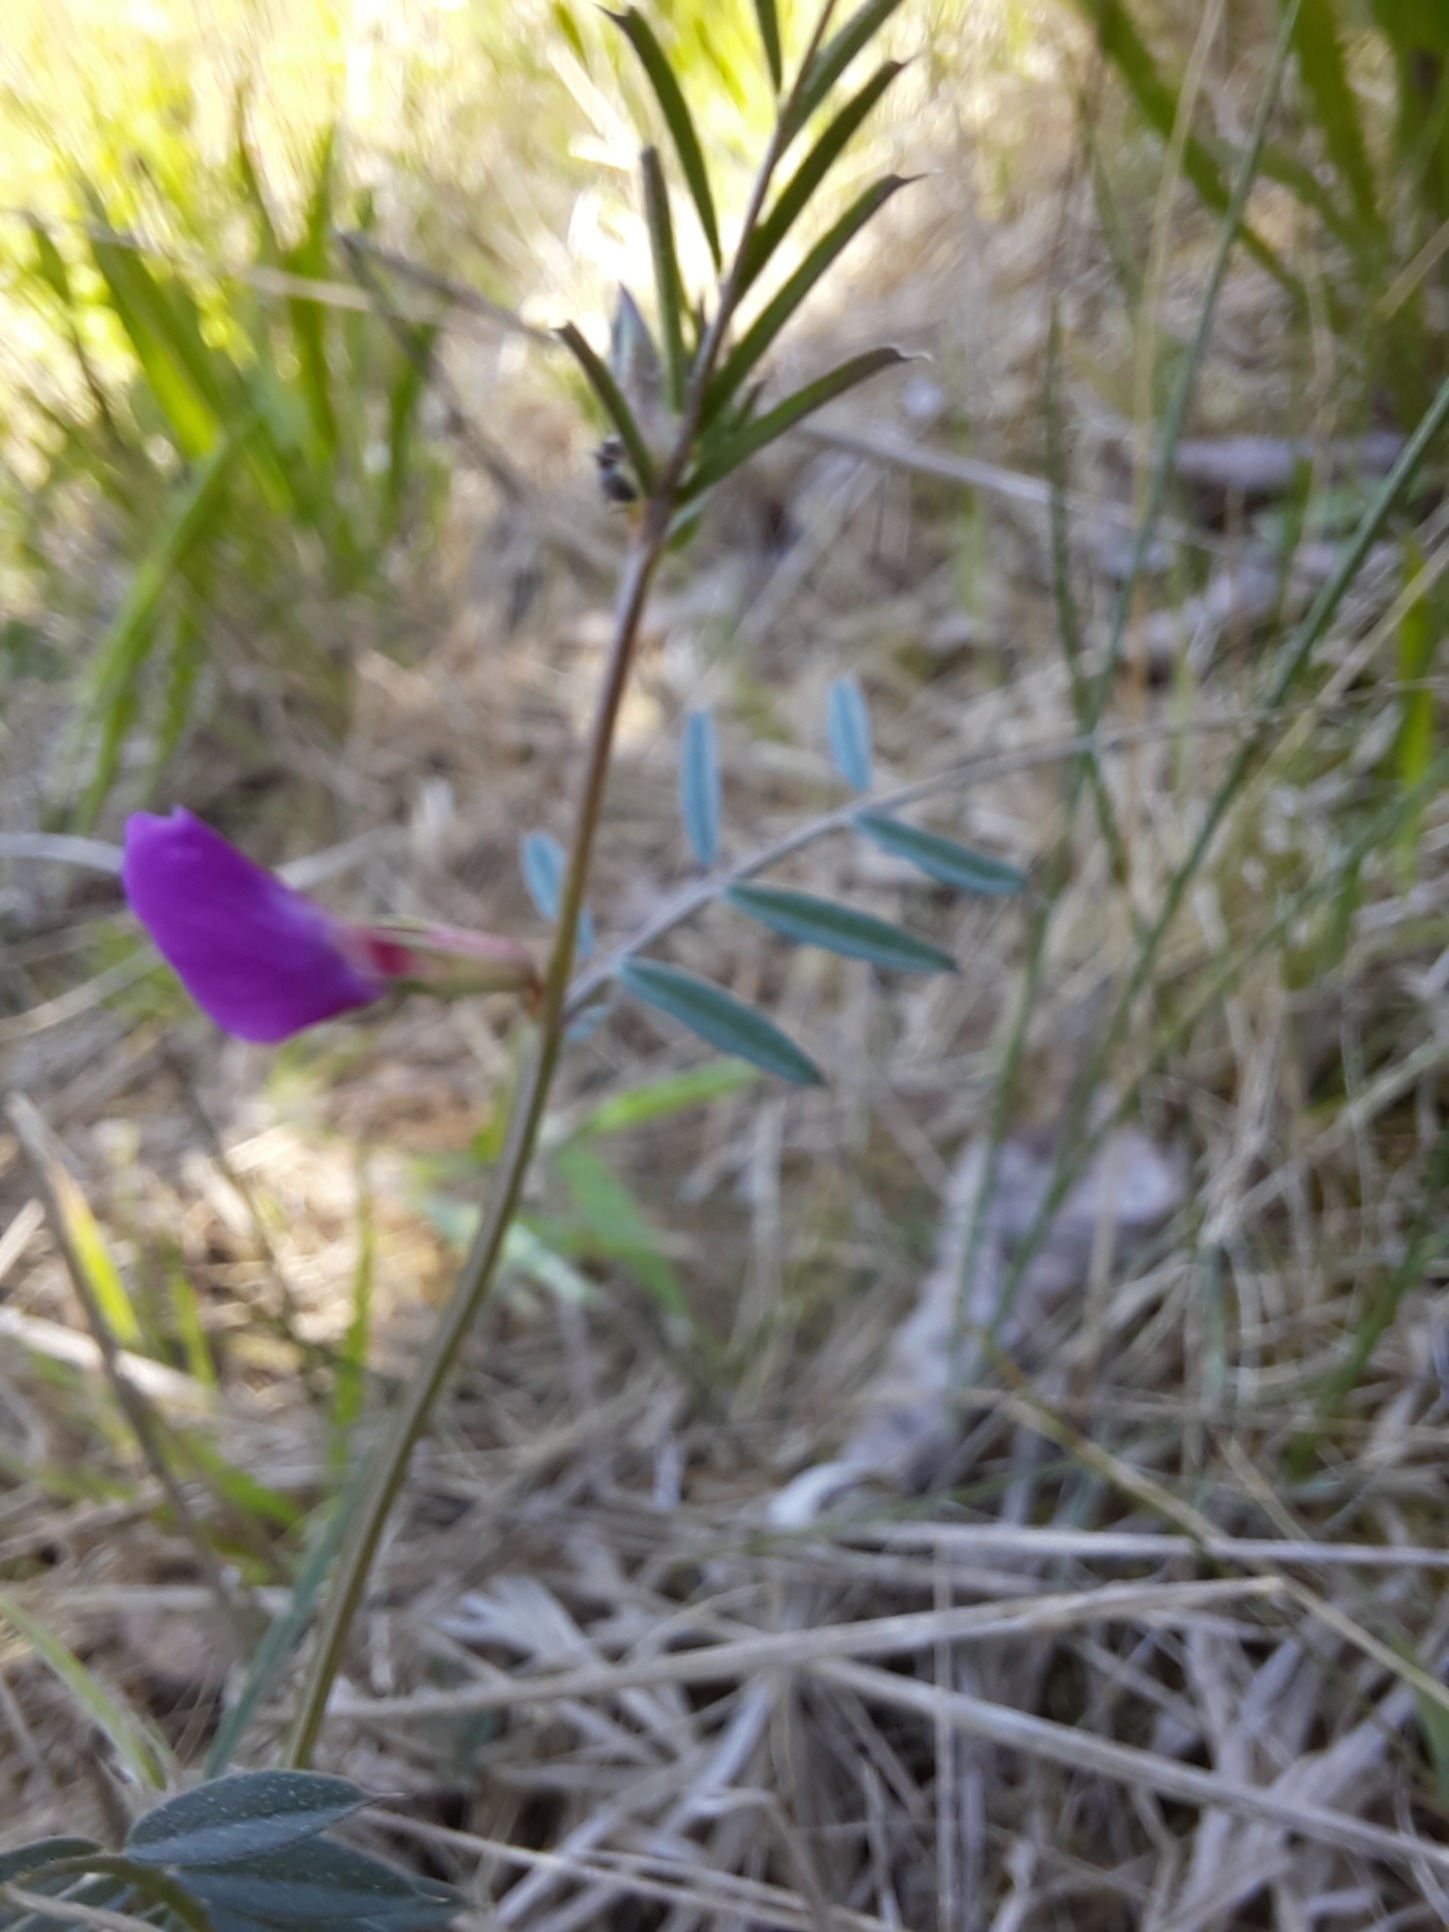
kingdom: Plantae
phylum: Tracheophyta
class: Magnoliopsida
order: Fabales
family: Fabaceae
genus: Vicia
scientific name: Vicia sativa
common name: Smalbladet vikke
